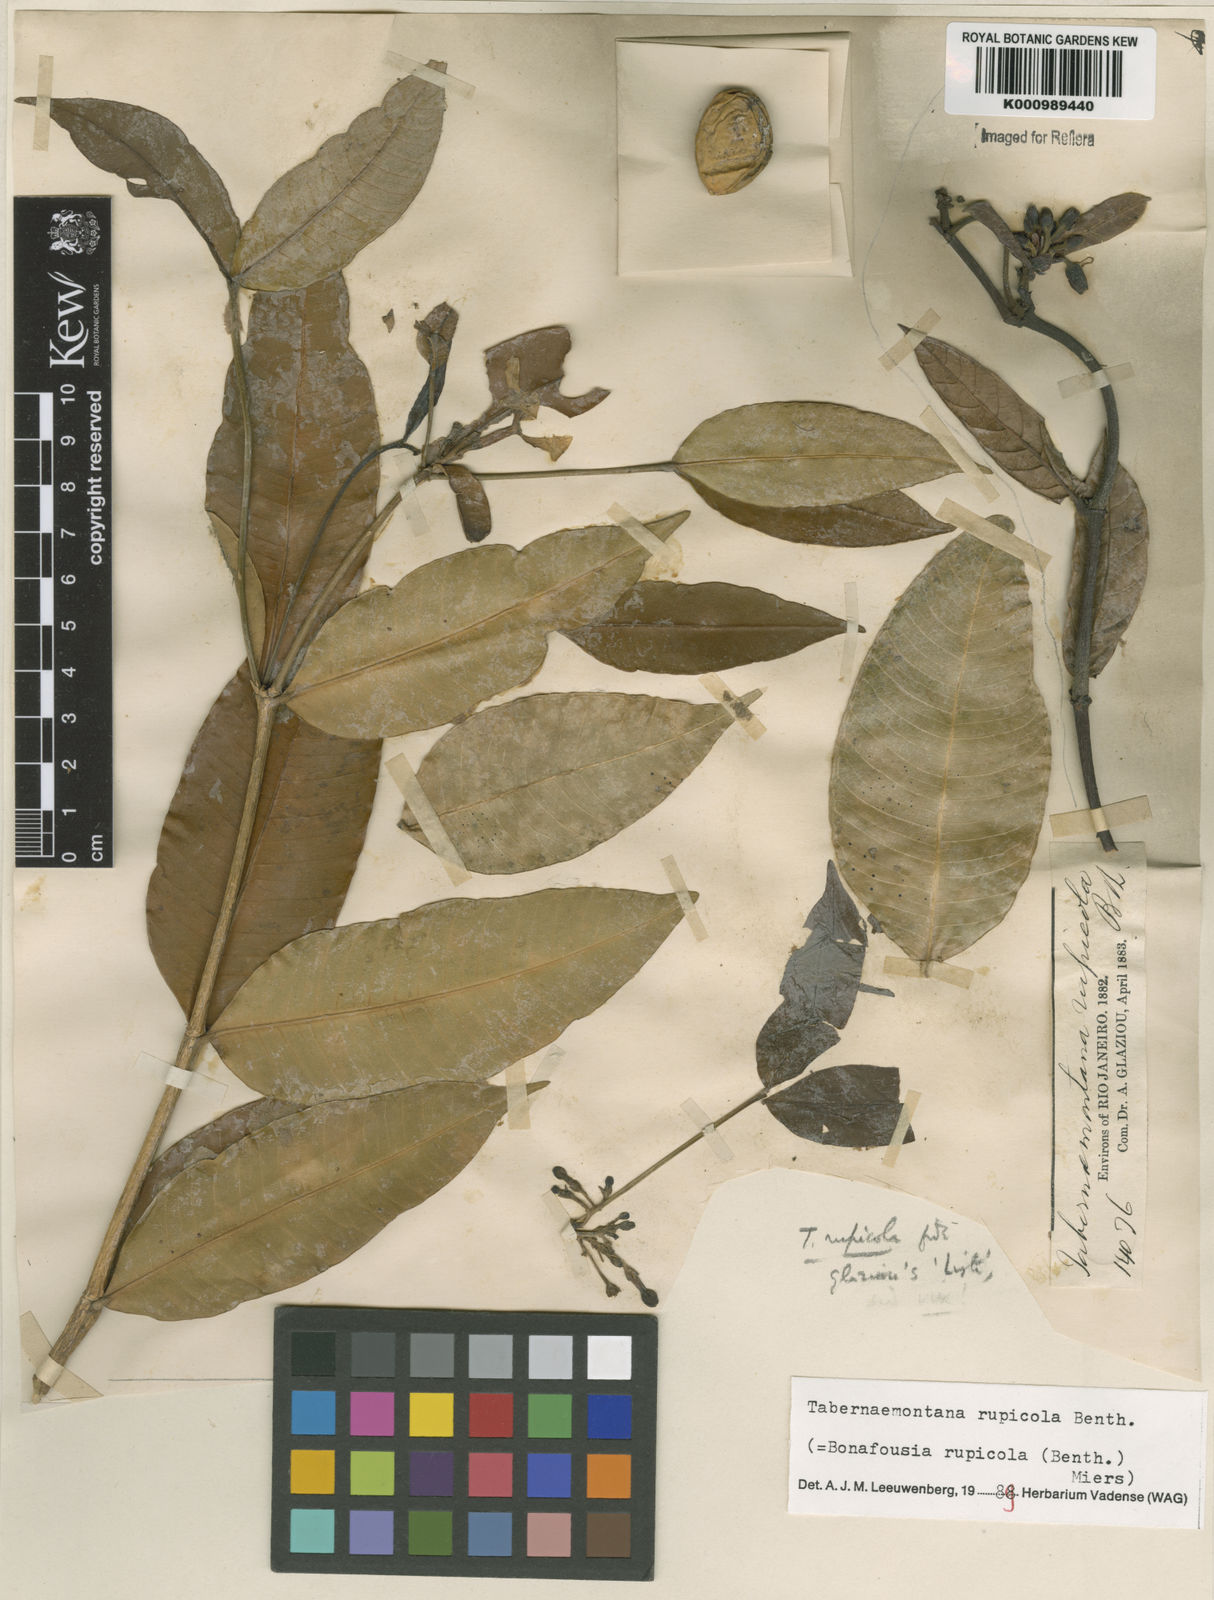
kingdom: Plantae
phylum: Tracheophyta
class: Magnoliopsida
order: Gentianales
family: Apocynaceae
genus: Tabernaemontana
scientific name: Tabernaemontana rupicola
